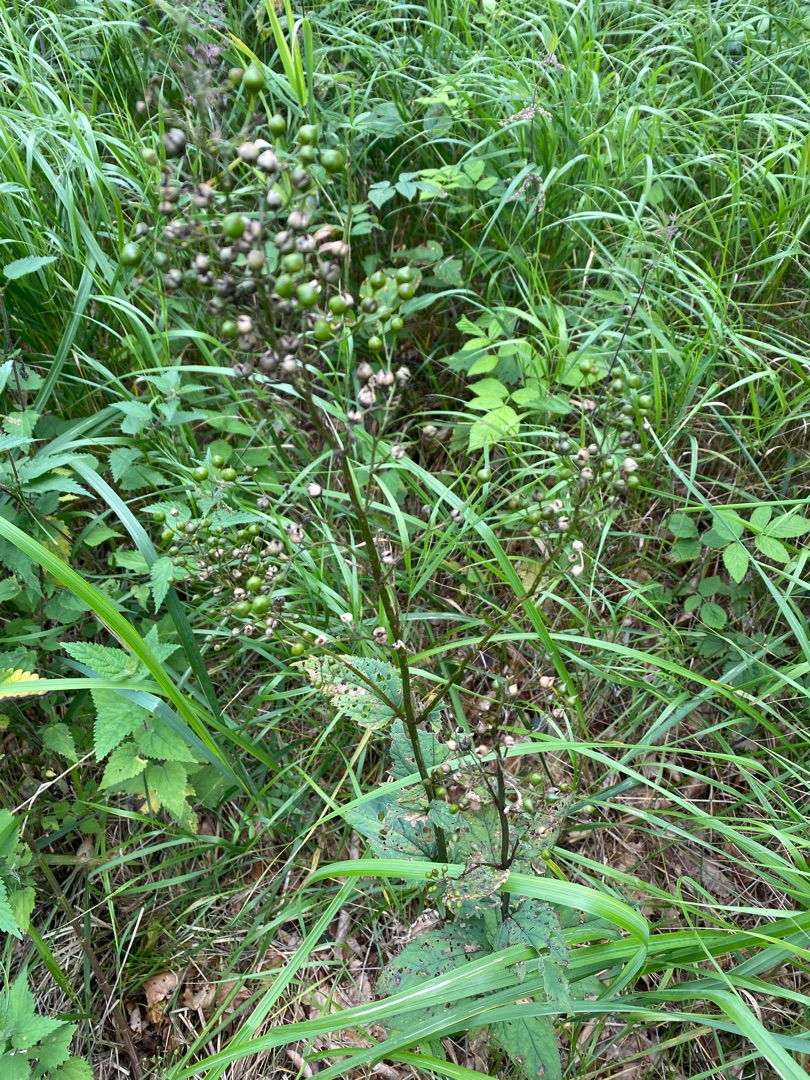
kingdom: Plantae
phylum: Tracheophyta
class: Magnoliopsida
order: Lamiales
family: Scrophulariaceae
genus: Scrophularia
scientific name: Scrophularia nodosa
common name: Knoldet brunrod
